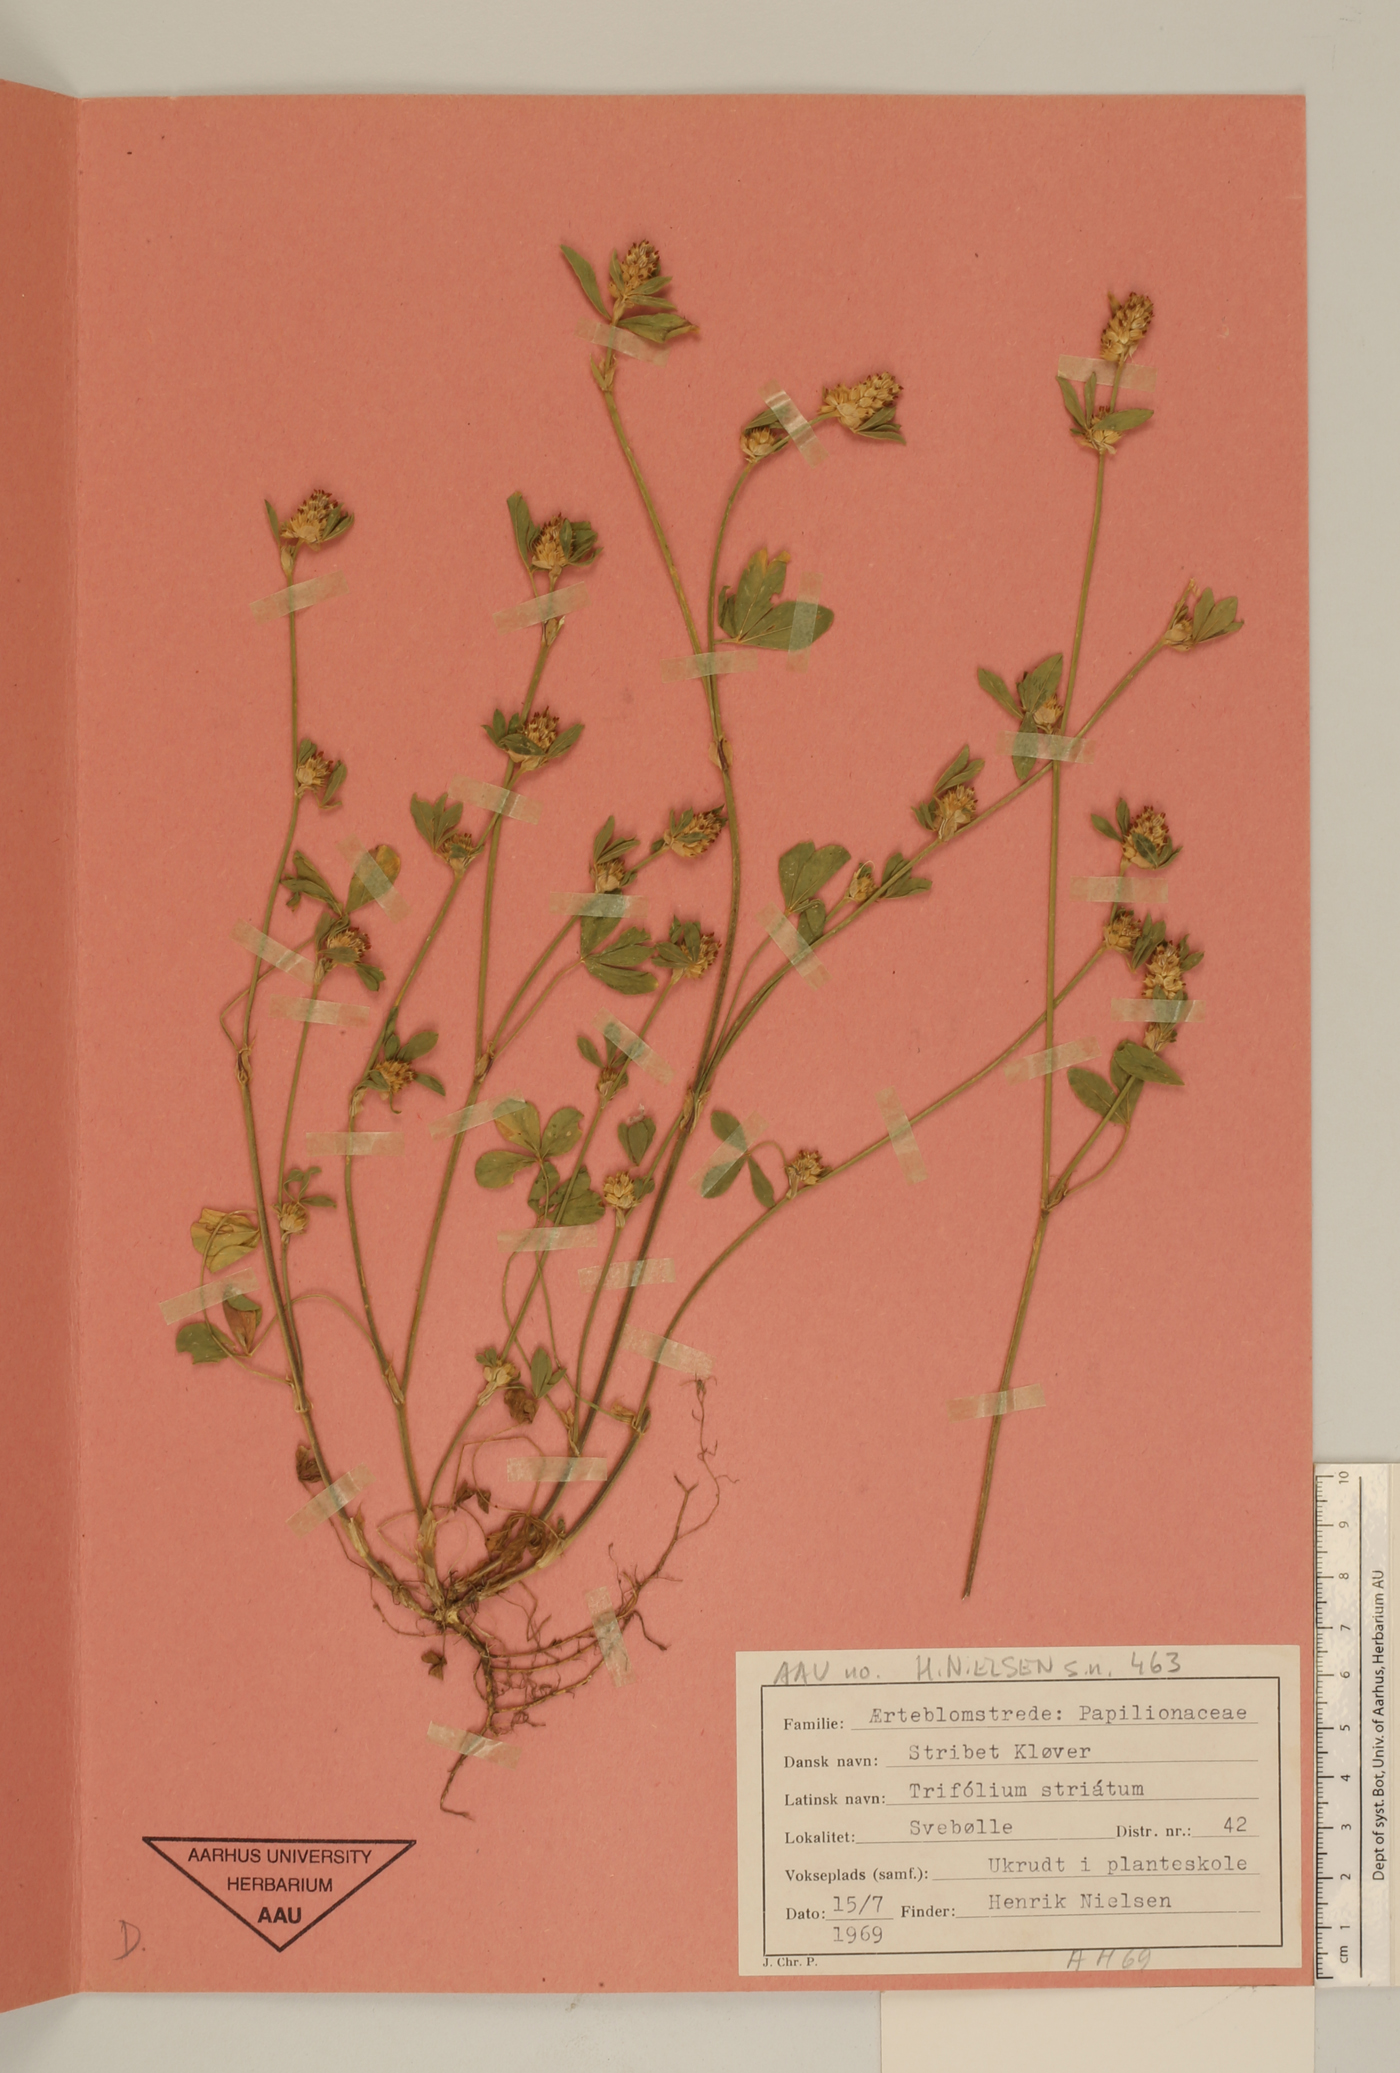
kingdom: Plantae
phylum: Tracheophyta
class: Magnoliopsida
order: Fabales
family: Fabaceae
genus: Trifolium
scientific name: Trifolium striatum
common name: Knotted clover
